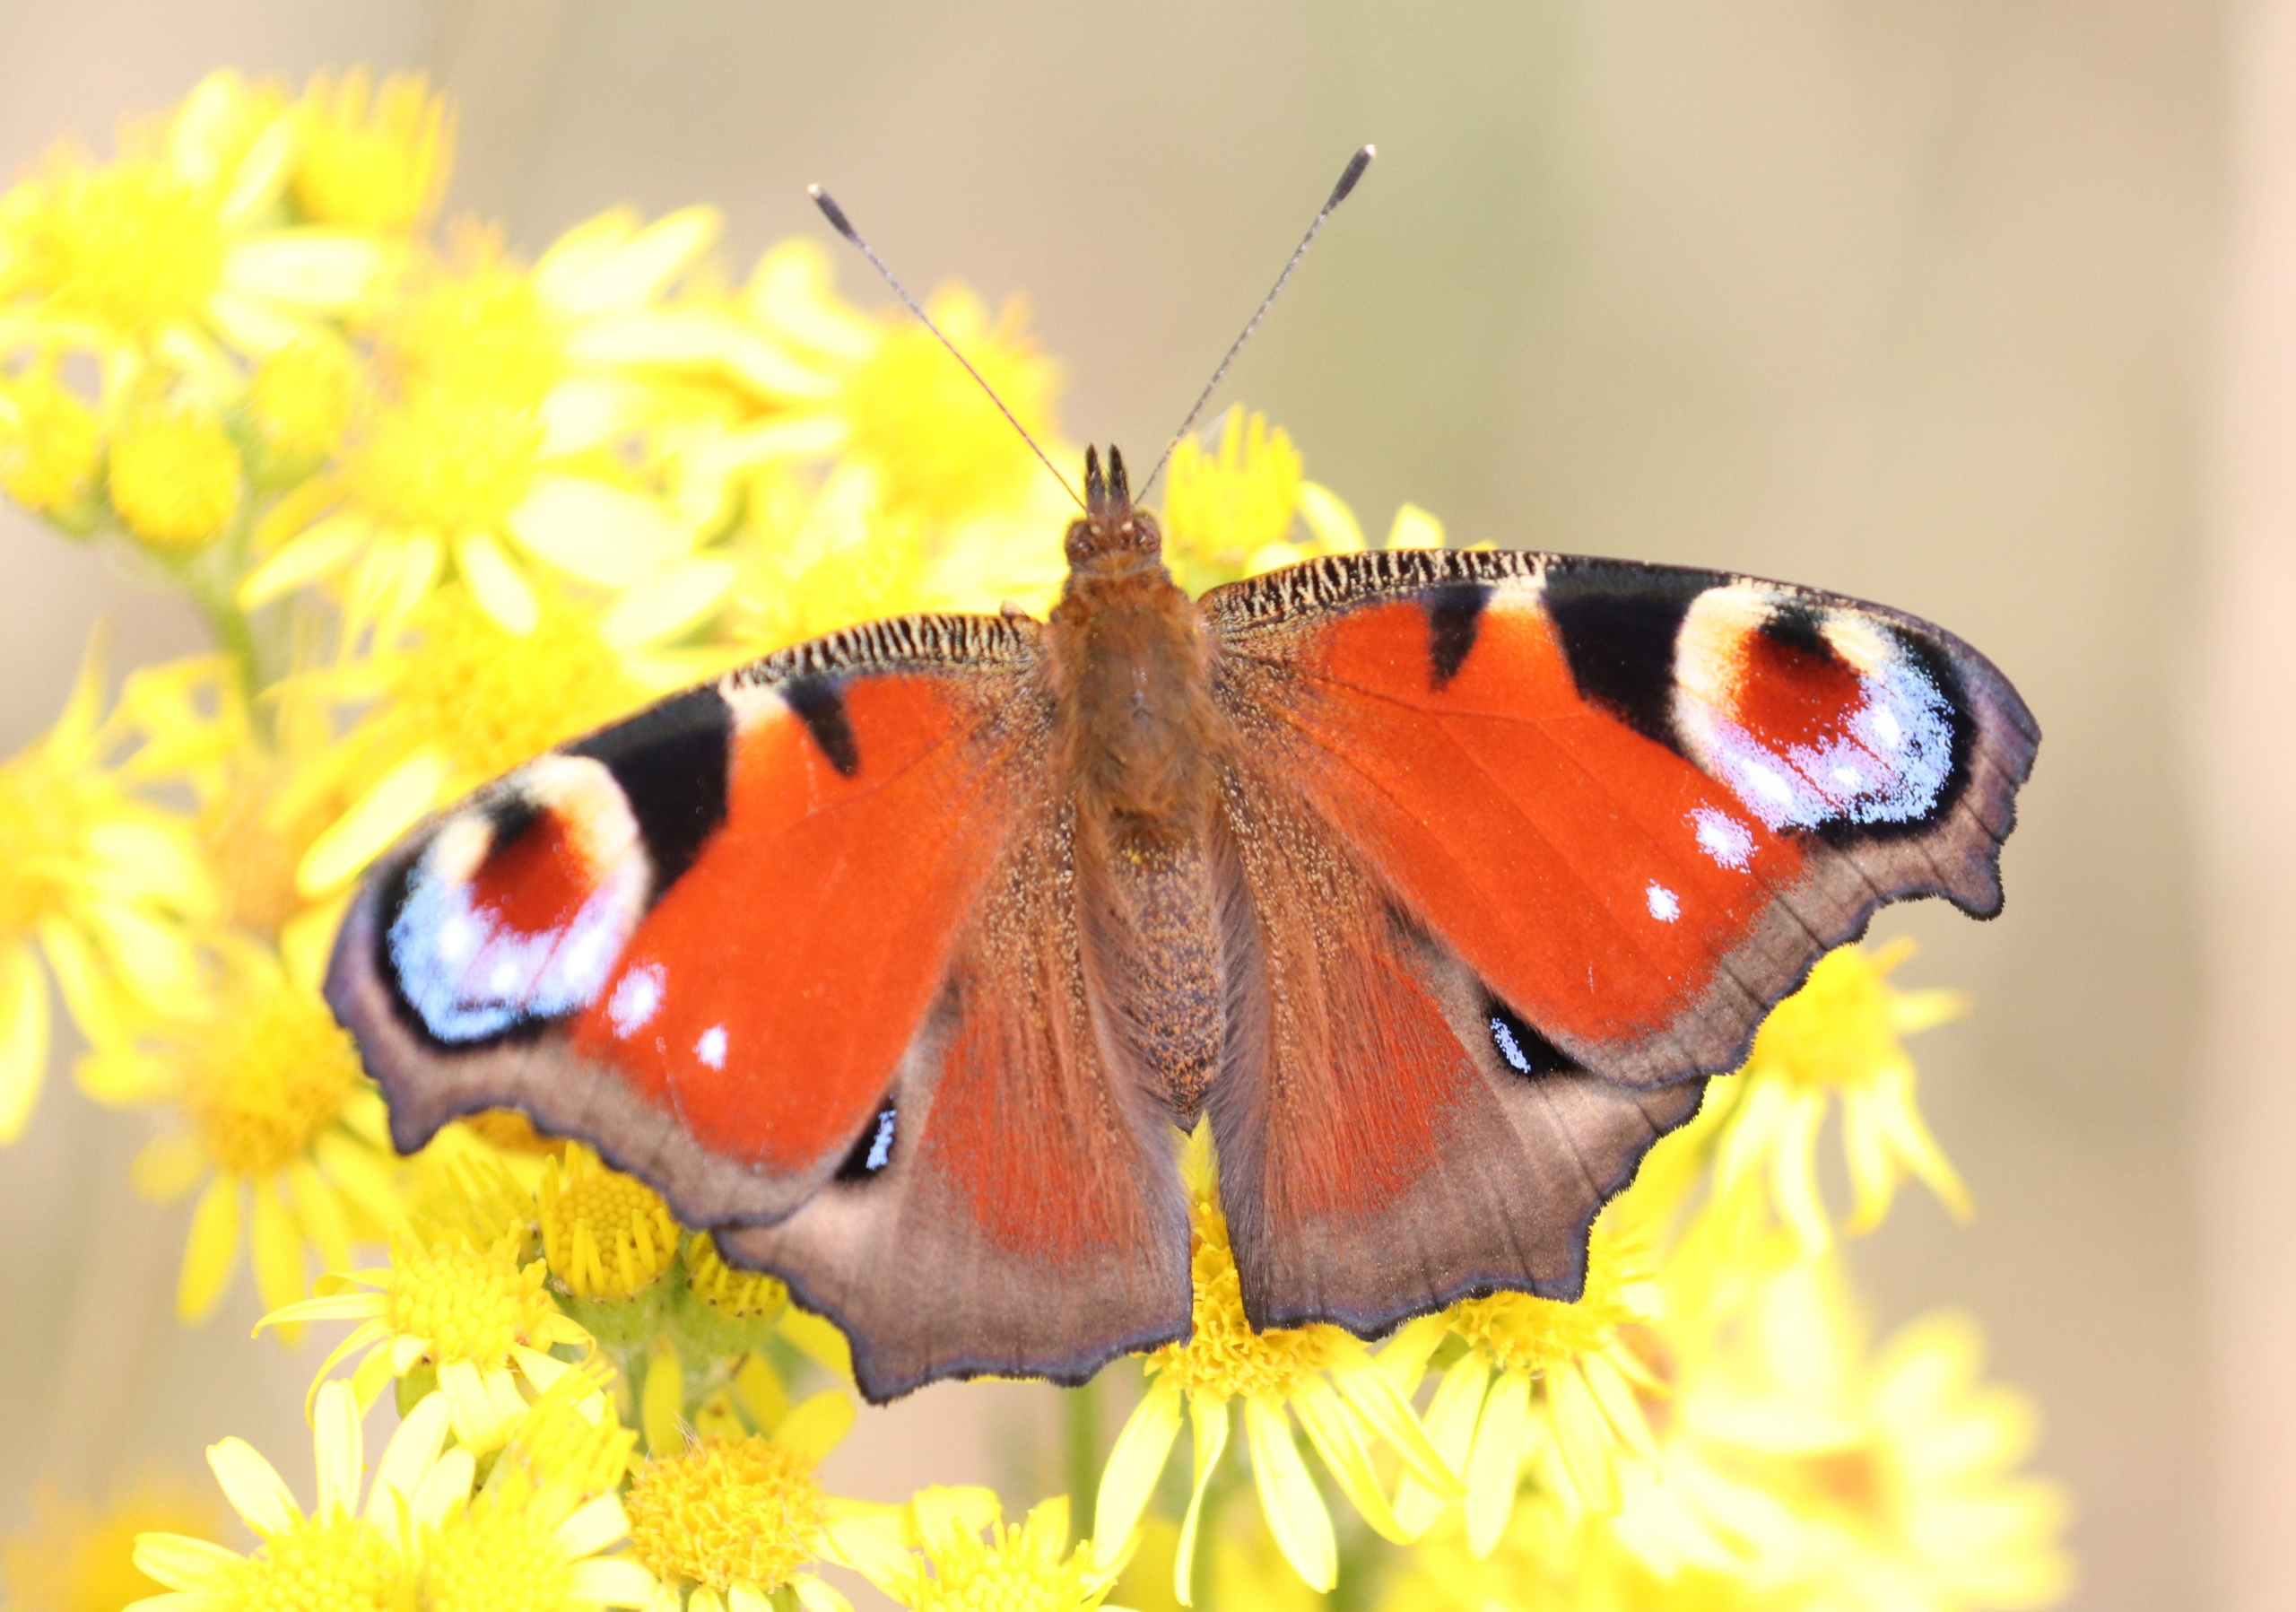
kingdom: Animalia
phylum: Arthropoda
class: Insecta
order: Lepidoptera
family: Nymphalidae
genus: Aglais
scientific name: Aglais io
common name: Dagpåfugleøje
